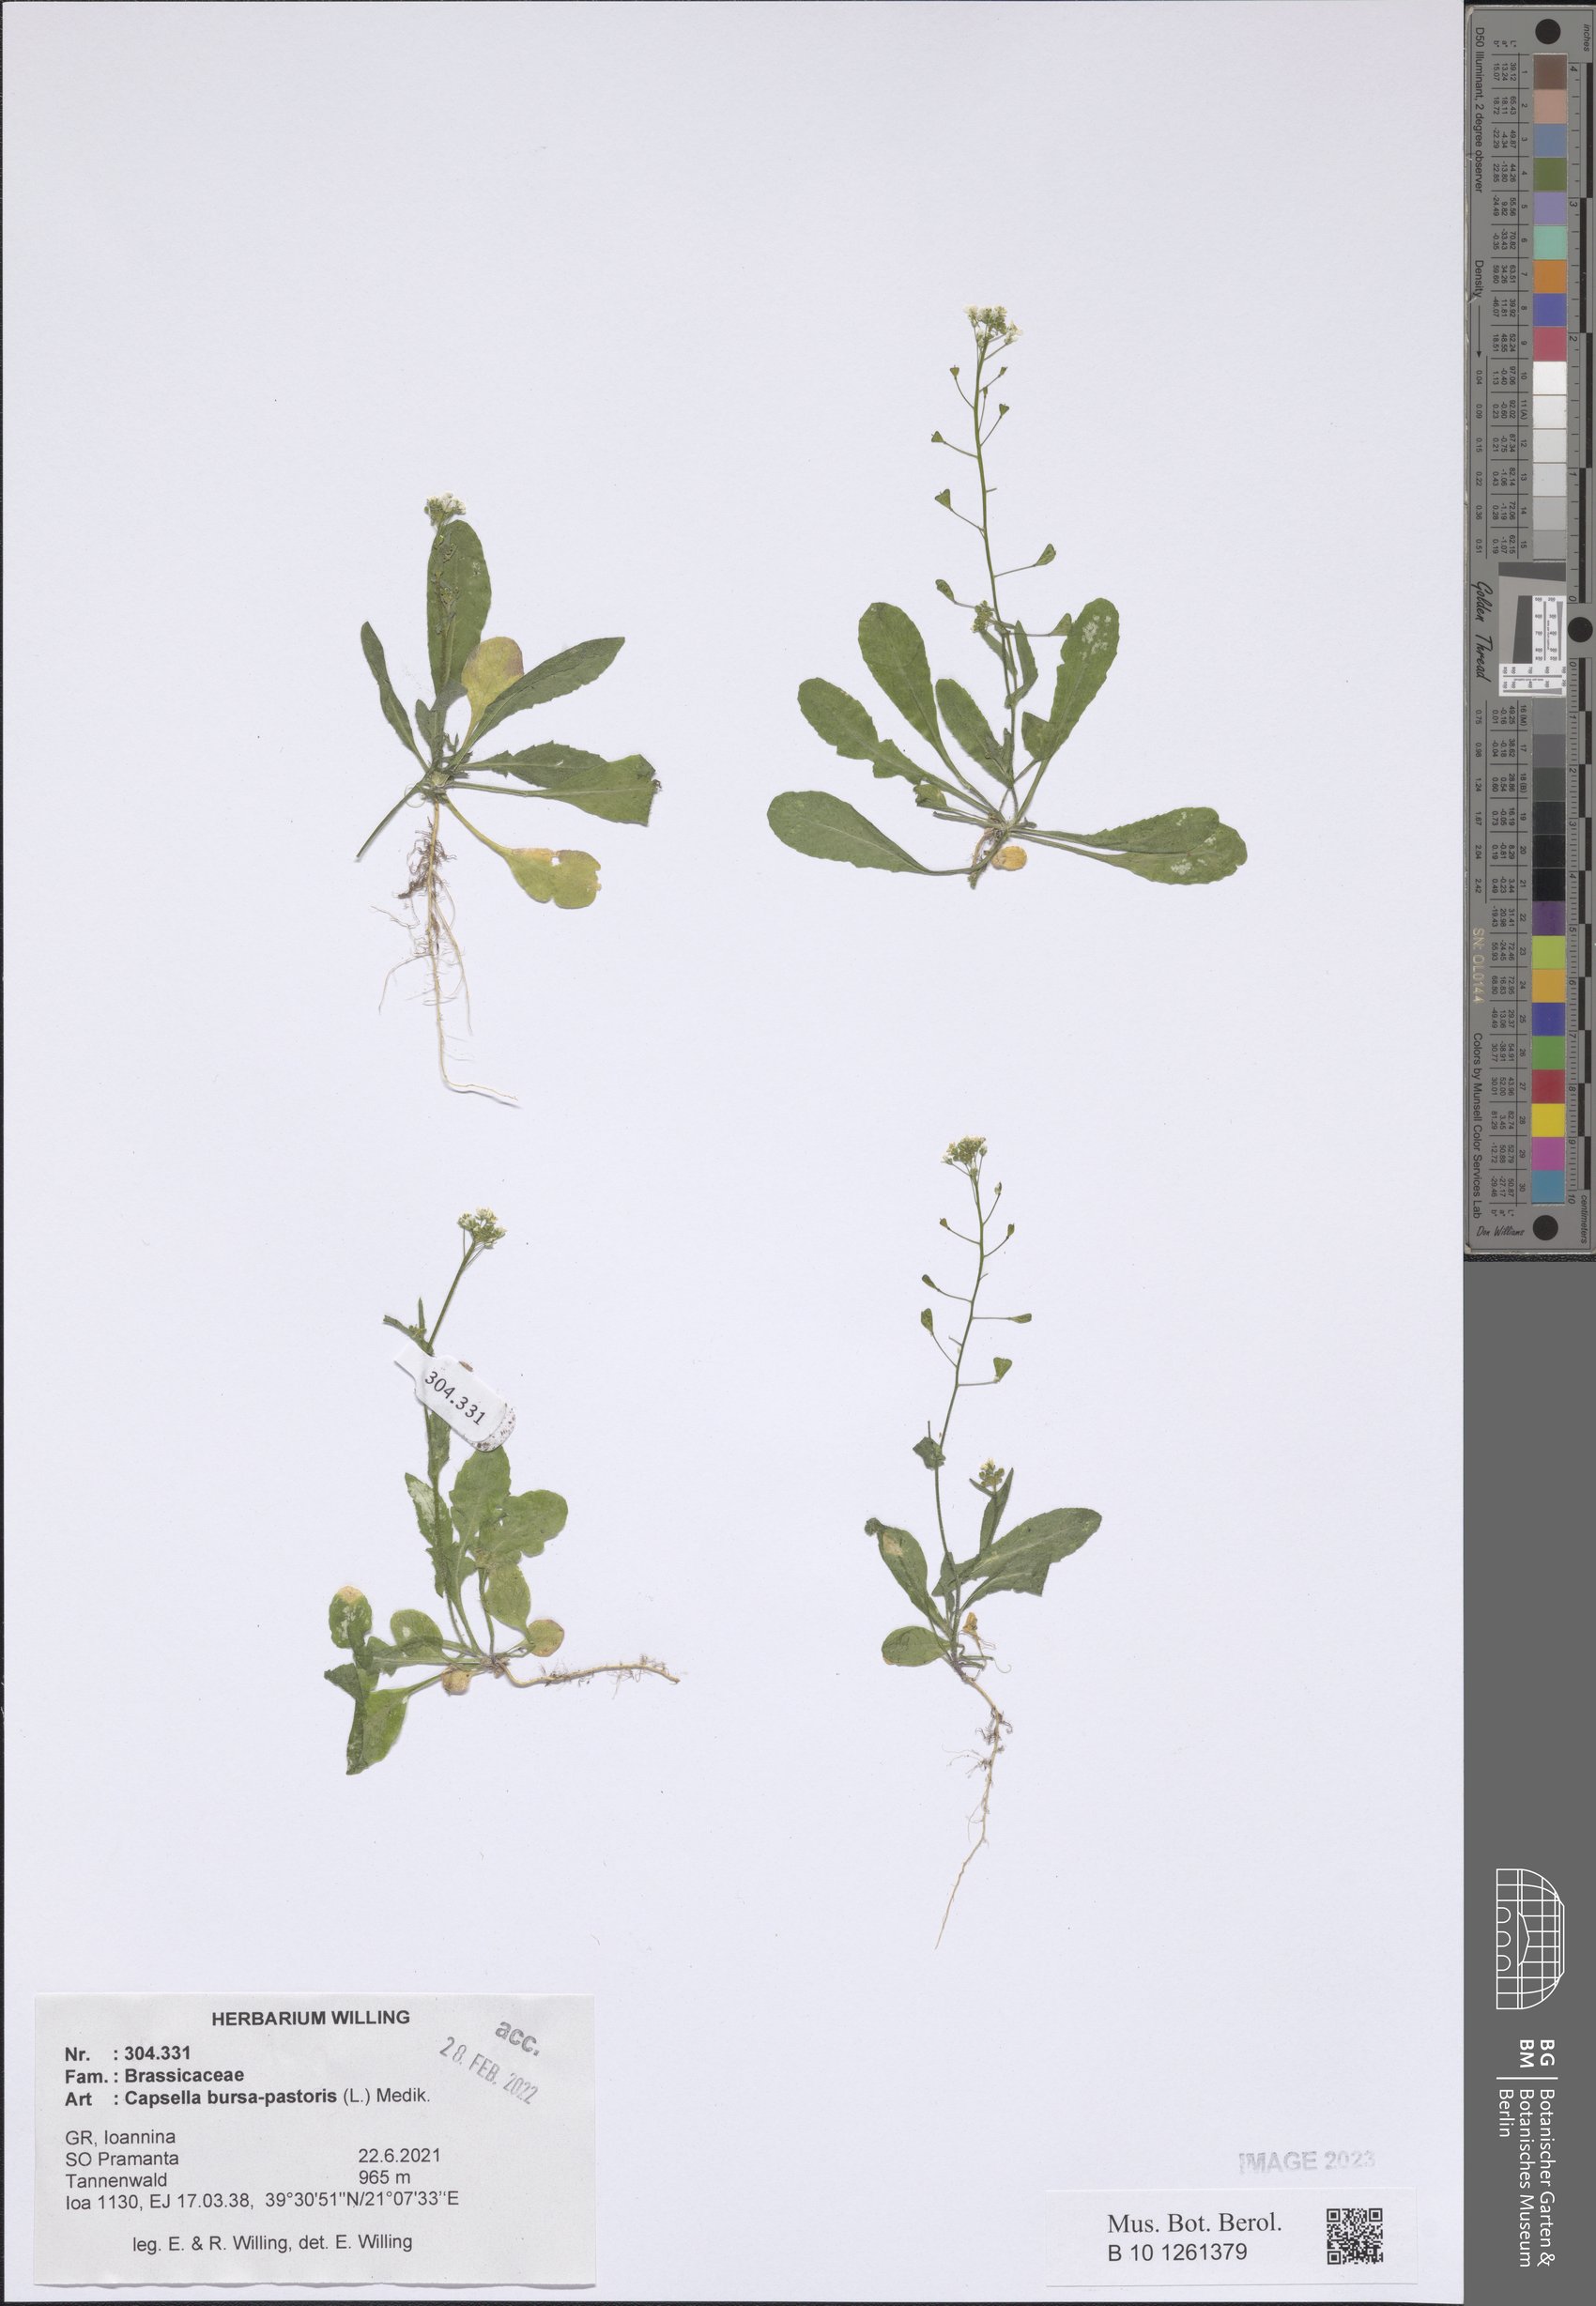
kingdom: Plantae
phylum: Tracheophyta
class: Magnoliopsida
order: Brassicales
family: Brassicaceae
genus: Capsella
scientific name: Capsella bursa-pastoris
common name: Shepherd's purse
